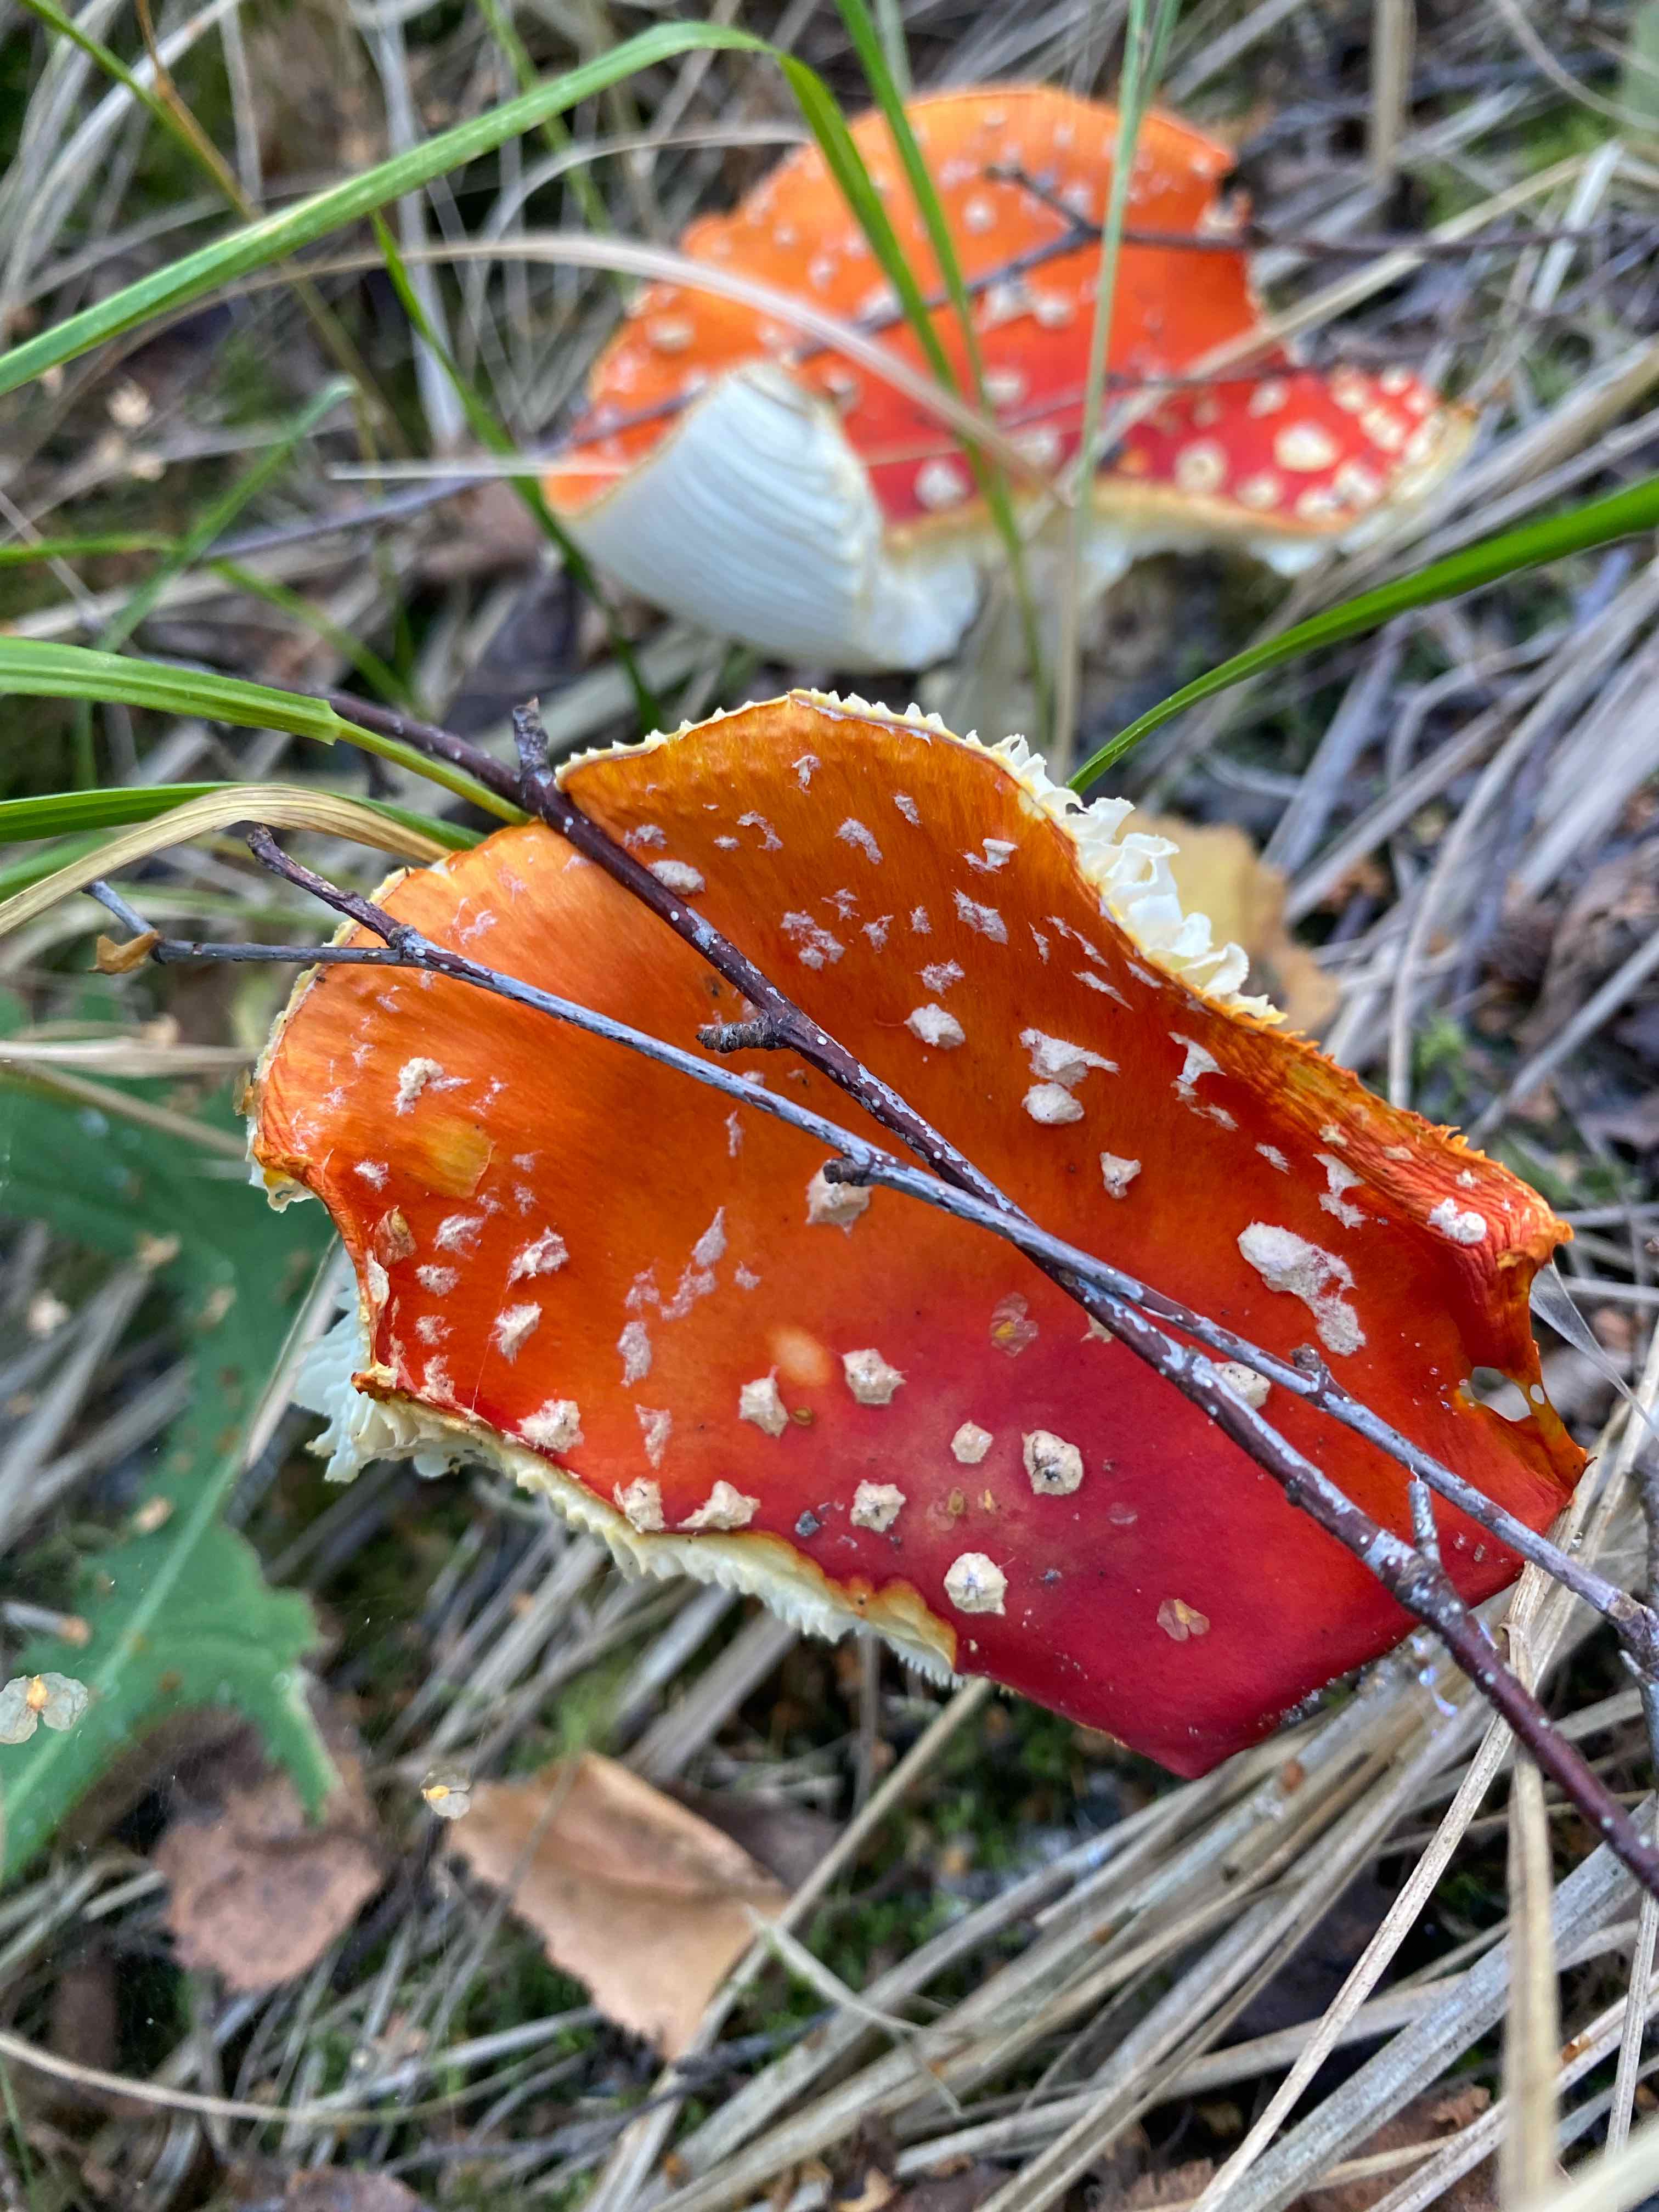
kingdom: Fungi
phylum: Basidiomycota
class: Agaricomycetes
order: Agaricales
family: Amanitaceae
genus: Amanita
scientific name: Amanita muscaria
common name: rød fluesvamp
